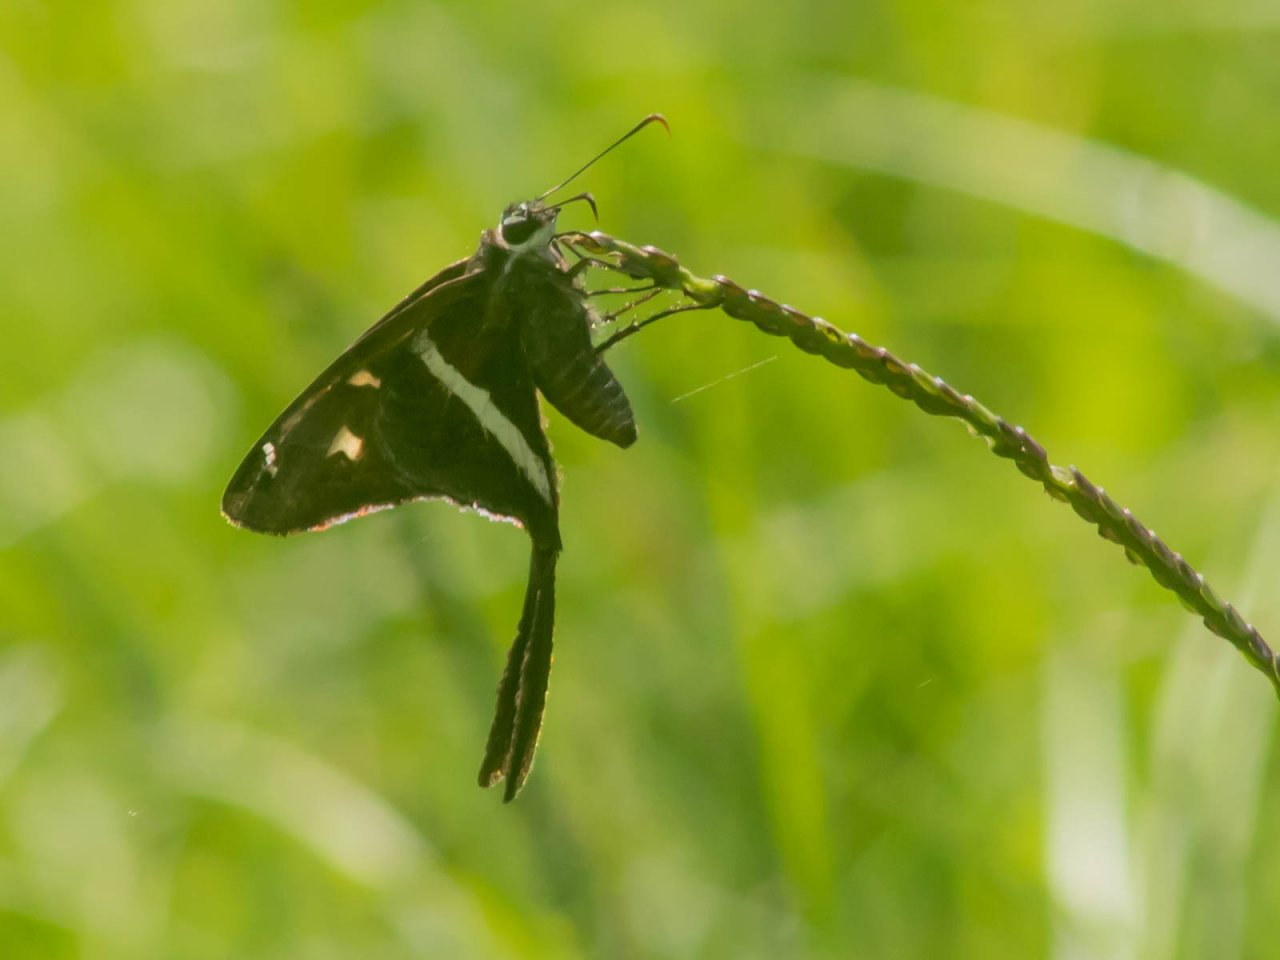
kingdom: Animalia
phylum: Arthropoda
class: Insecta
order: Lepidoptera
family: Hesperiidae
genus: Chioides
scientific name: Chioides catillus
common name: White-striped Longtail
